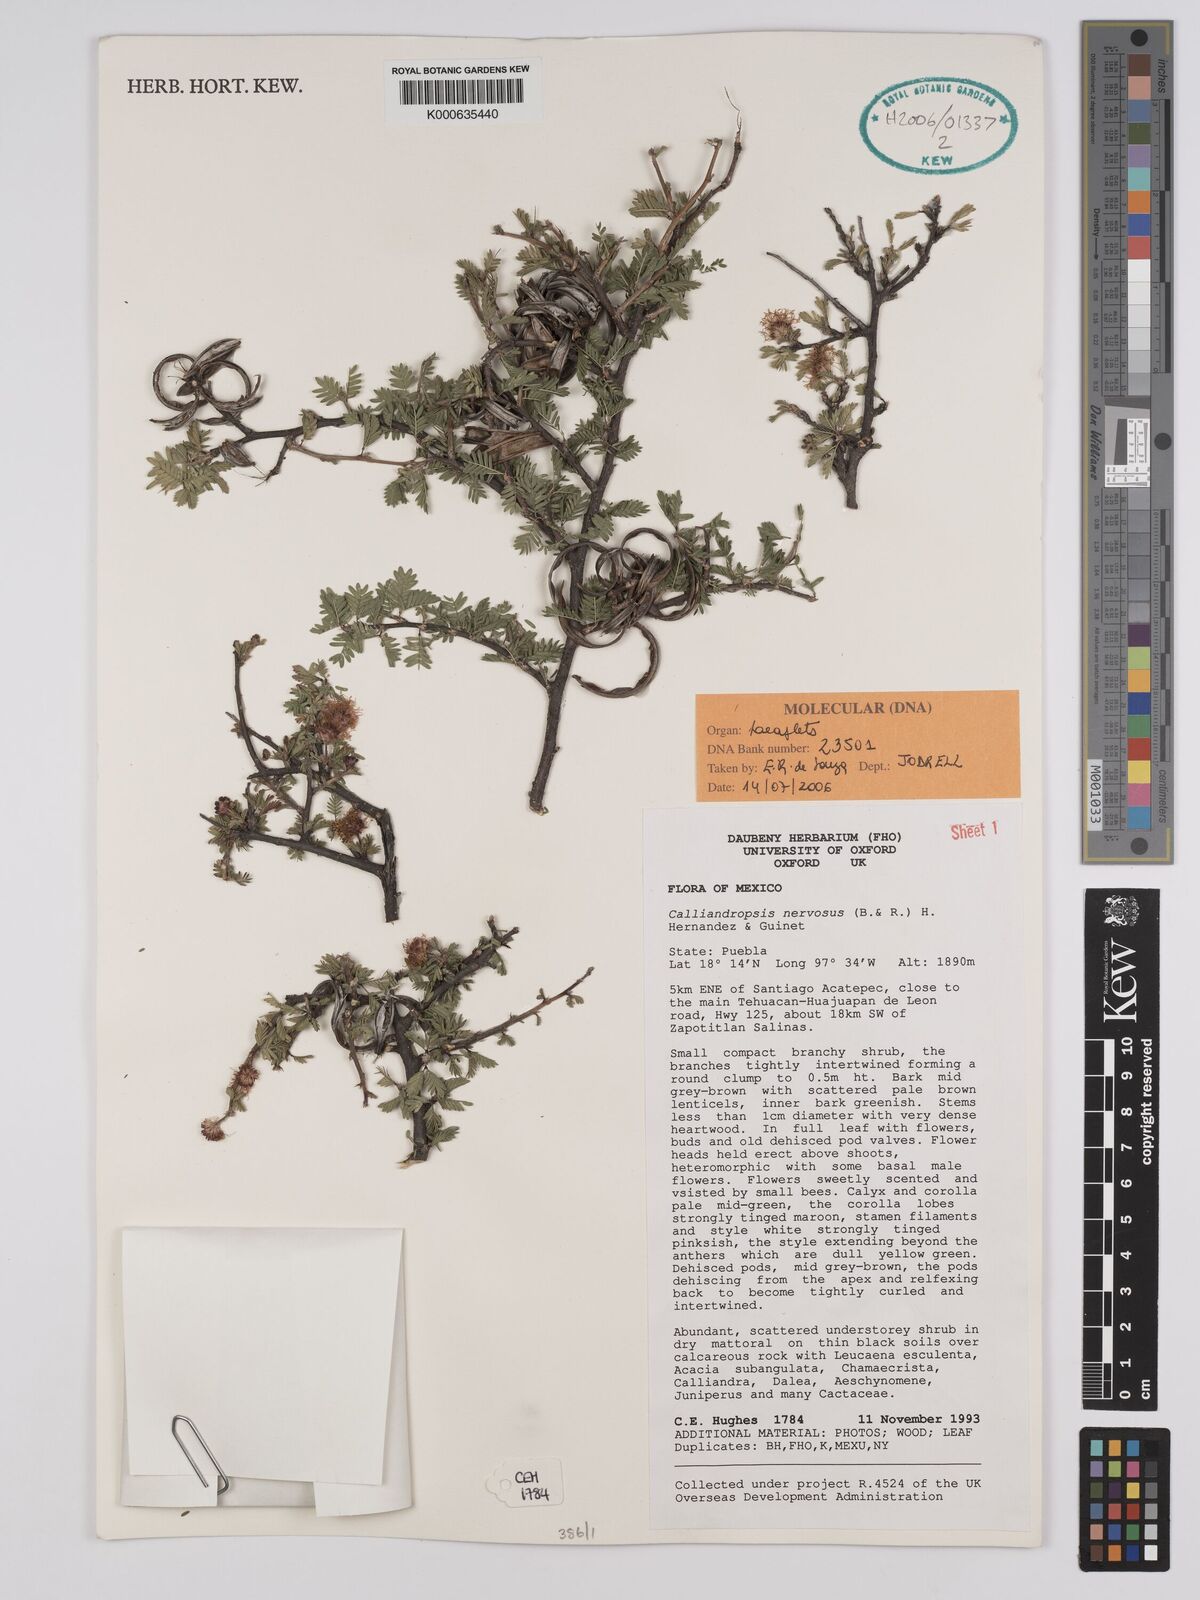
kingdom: Plantae
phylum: Tracheophyta
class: Magnoliopsida
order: Fabales
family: Fabaceae
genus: Calliandropsis
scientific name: Calliandropsis nervosa
